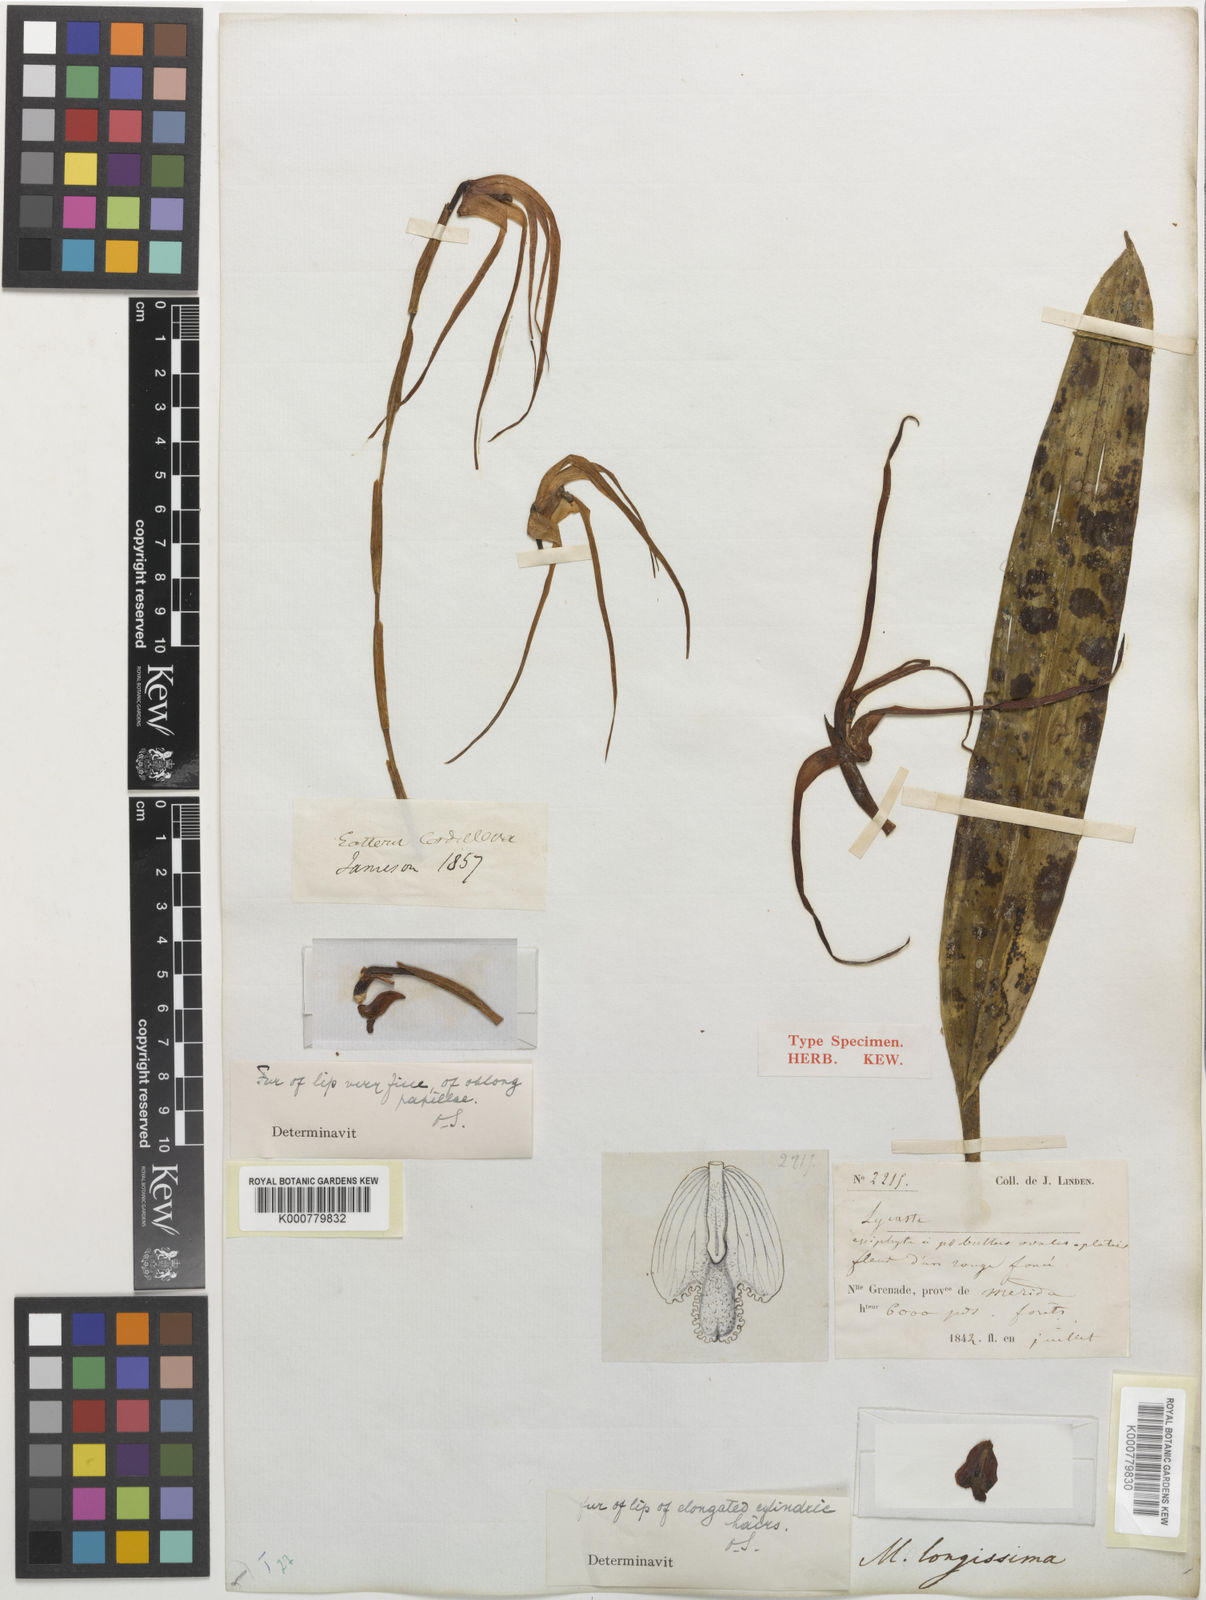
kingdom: Plantae
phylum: Tracheophyta
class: Liliopsida
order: Asparagales
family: Orchidaceae
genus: Maxillaria
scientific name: Maxillaria longissima
